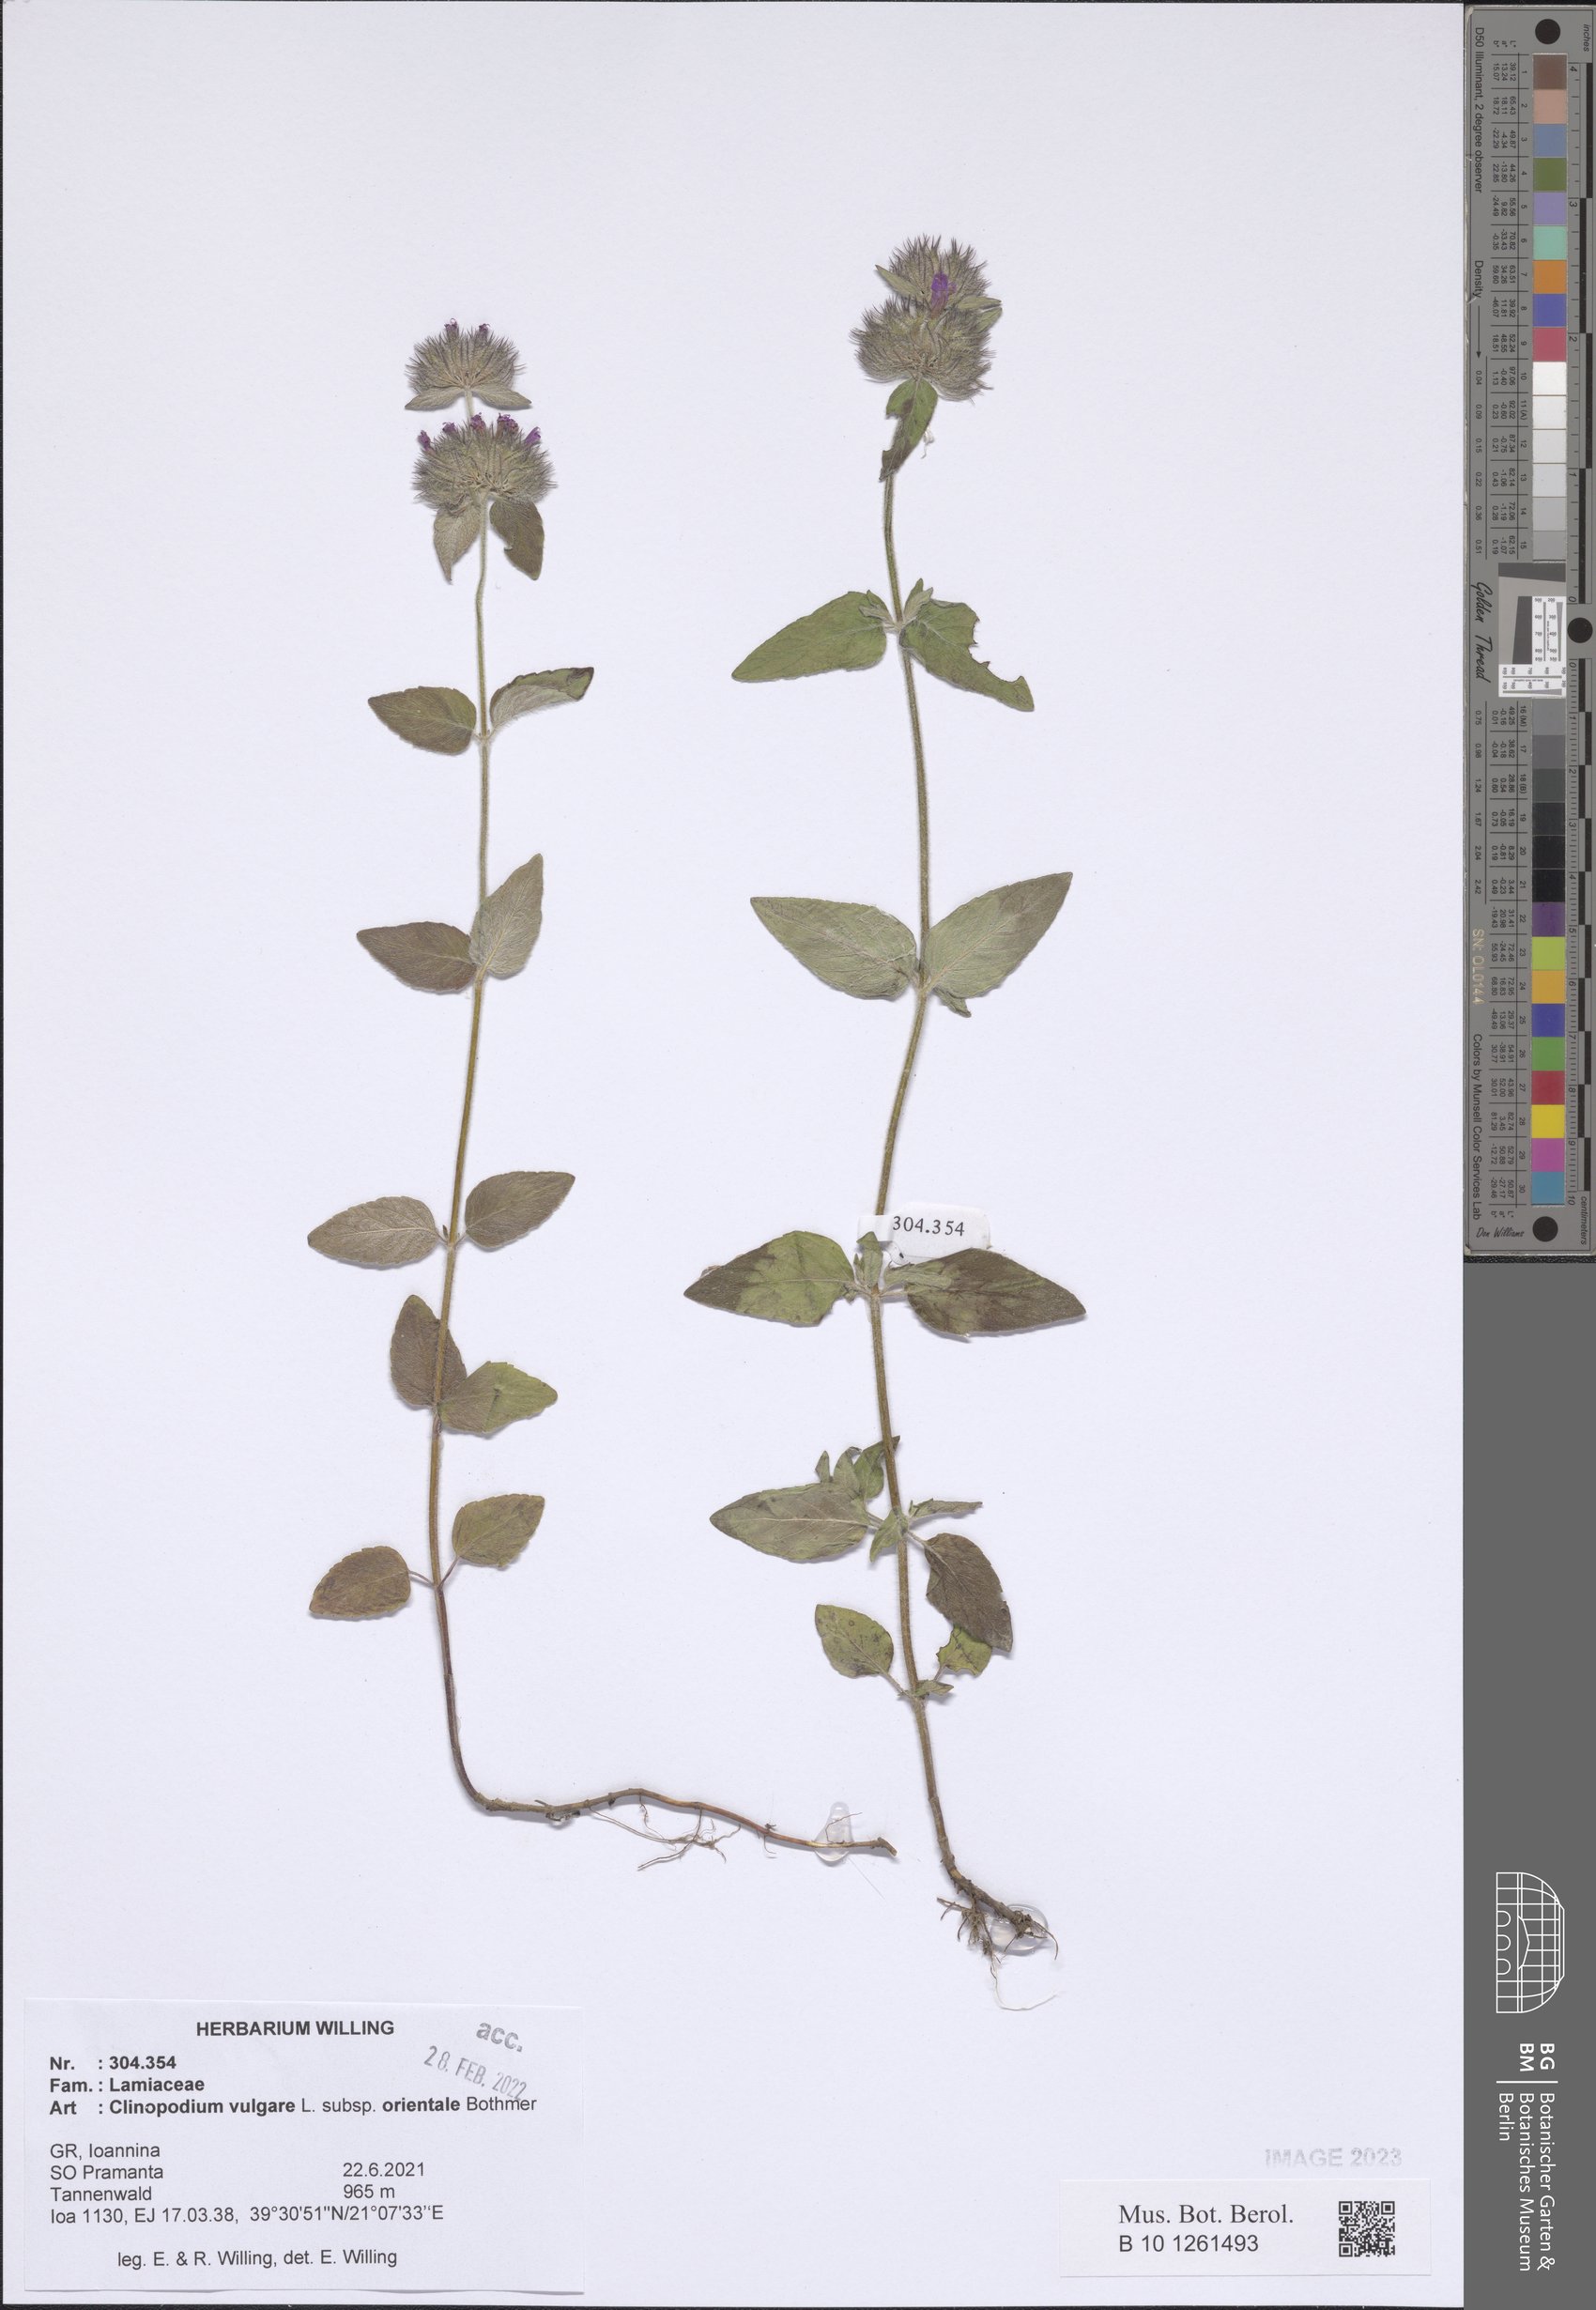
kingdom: Plantae
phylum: Tracheophyta
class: Magnoliopsida
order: Lamiales
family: Lamiaceae
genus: Clinopodium
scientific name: Clinopodium vulgare
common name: Wild basil
